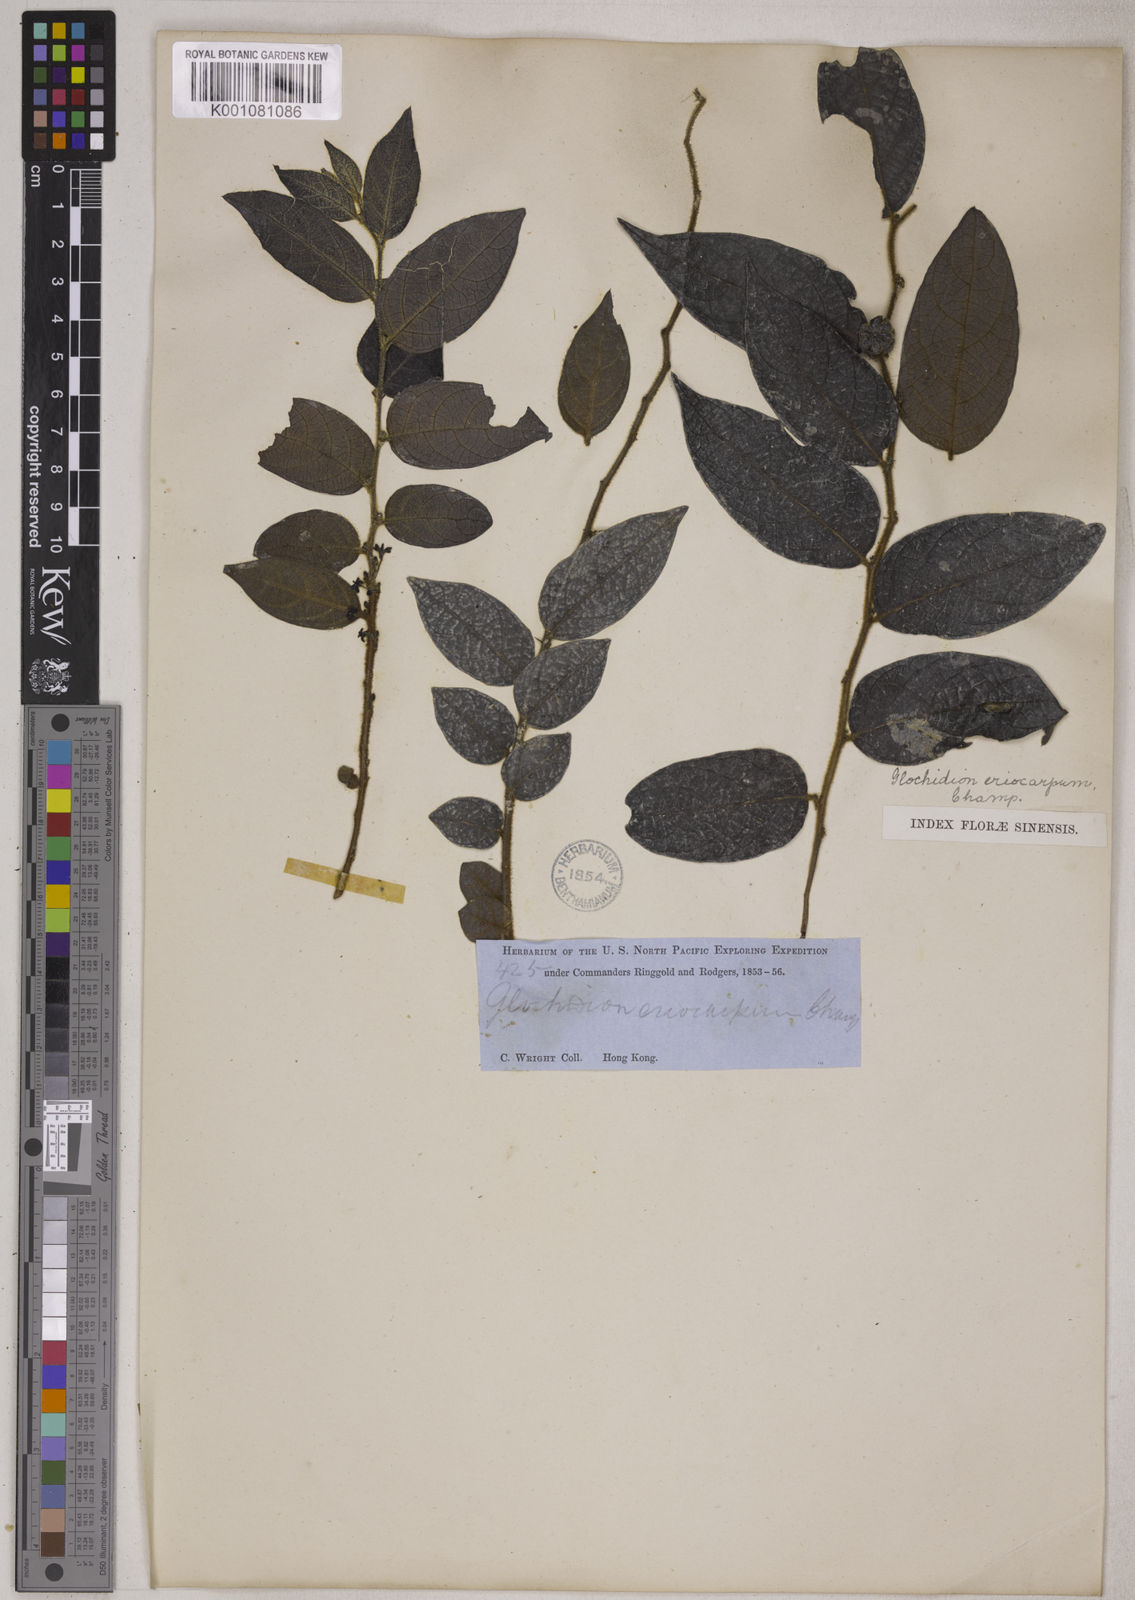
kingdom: Plantae
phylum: Tracheophyta
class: Magnoliopsida
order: Malpighiales
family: Phyllanthaceae
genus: Glochidion
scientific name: Glochidion eriocarpum
